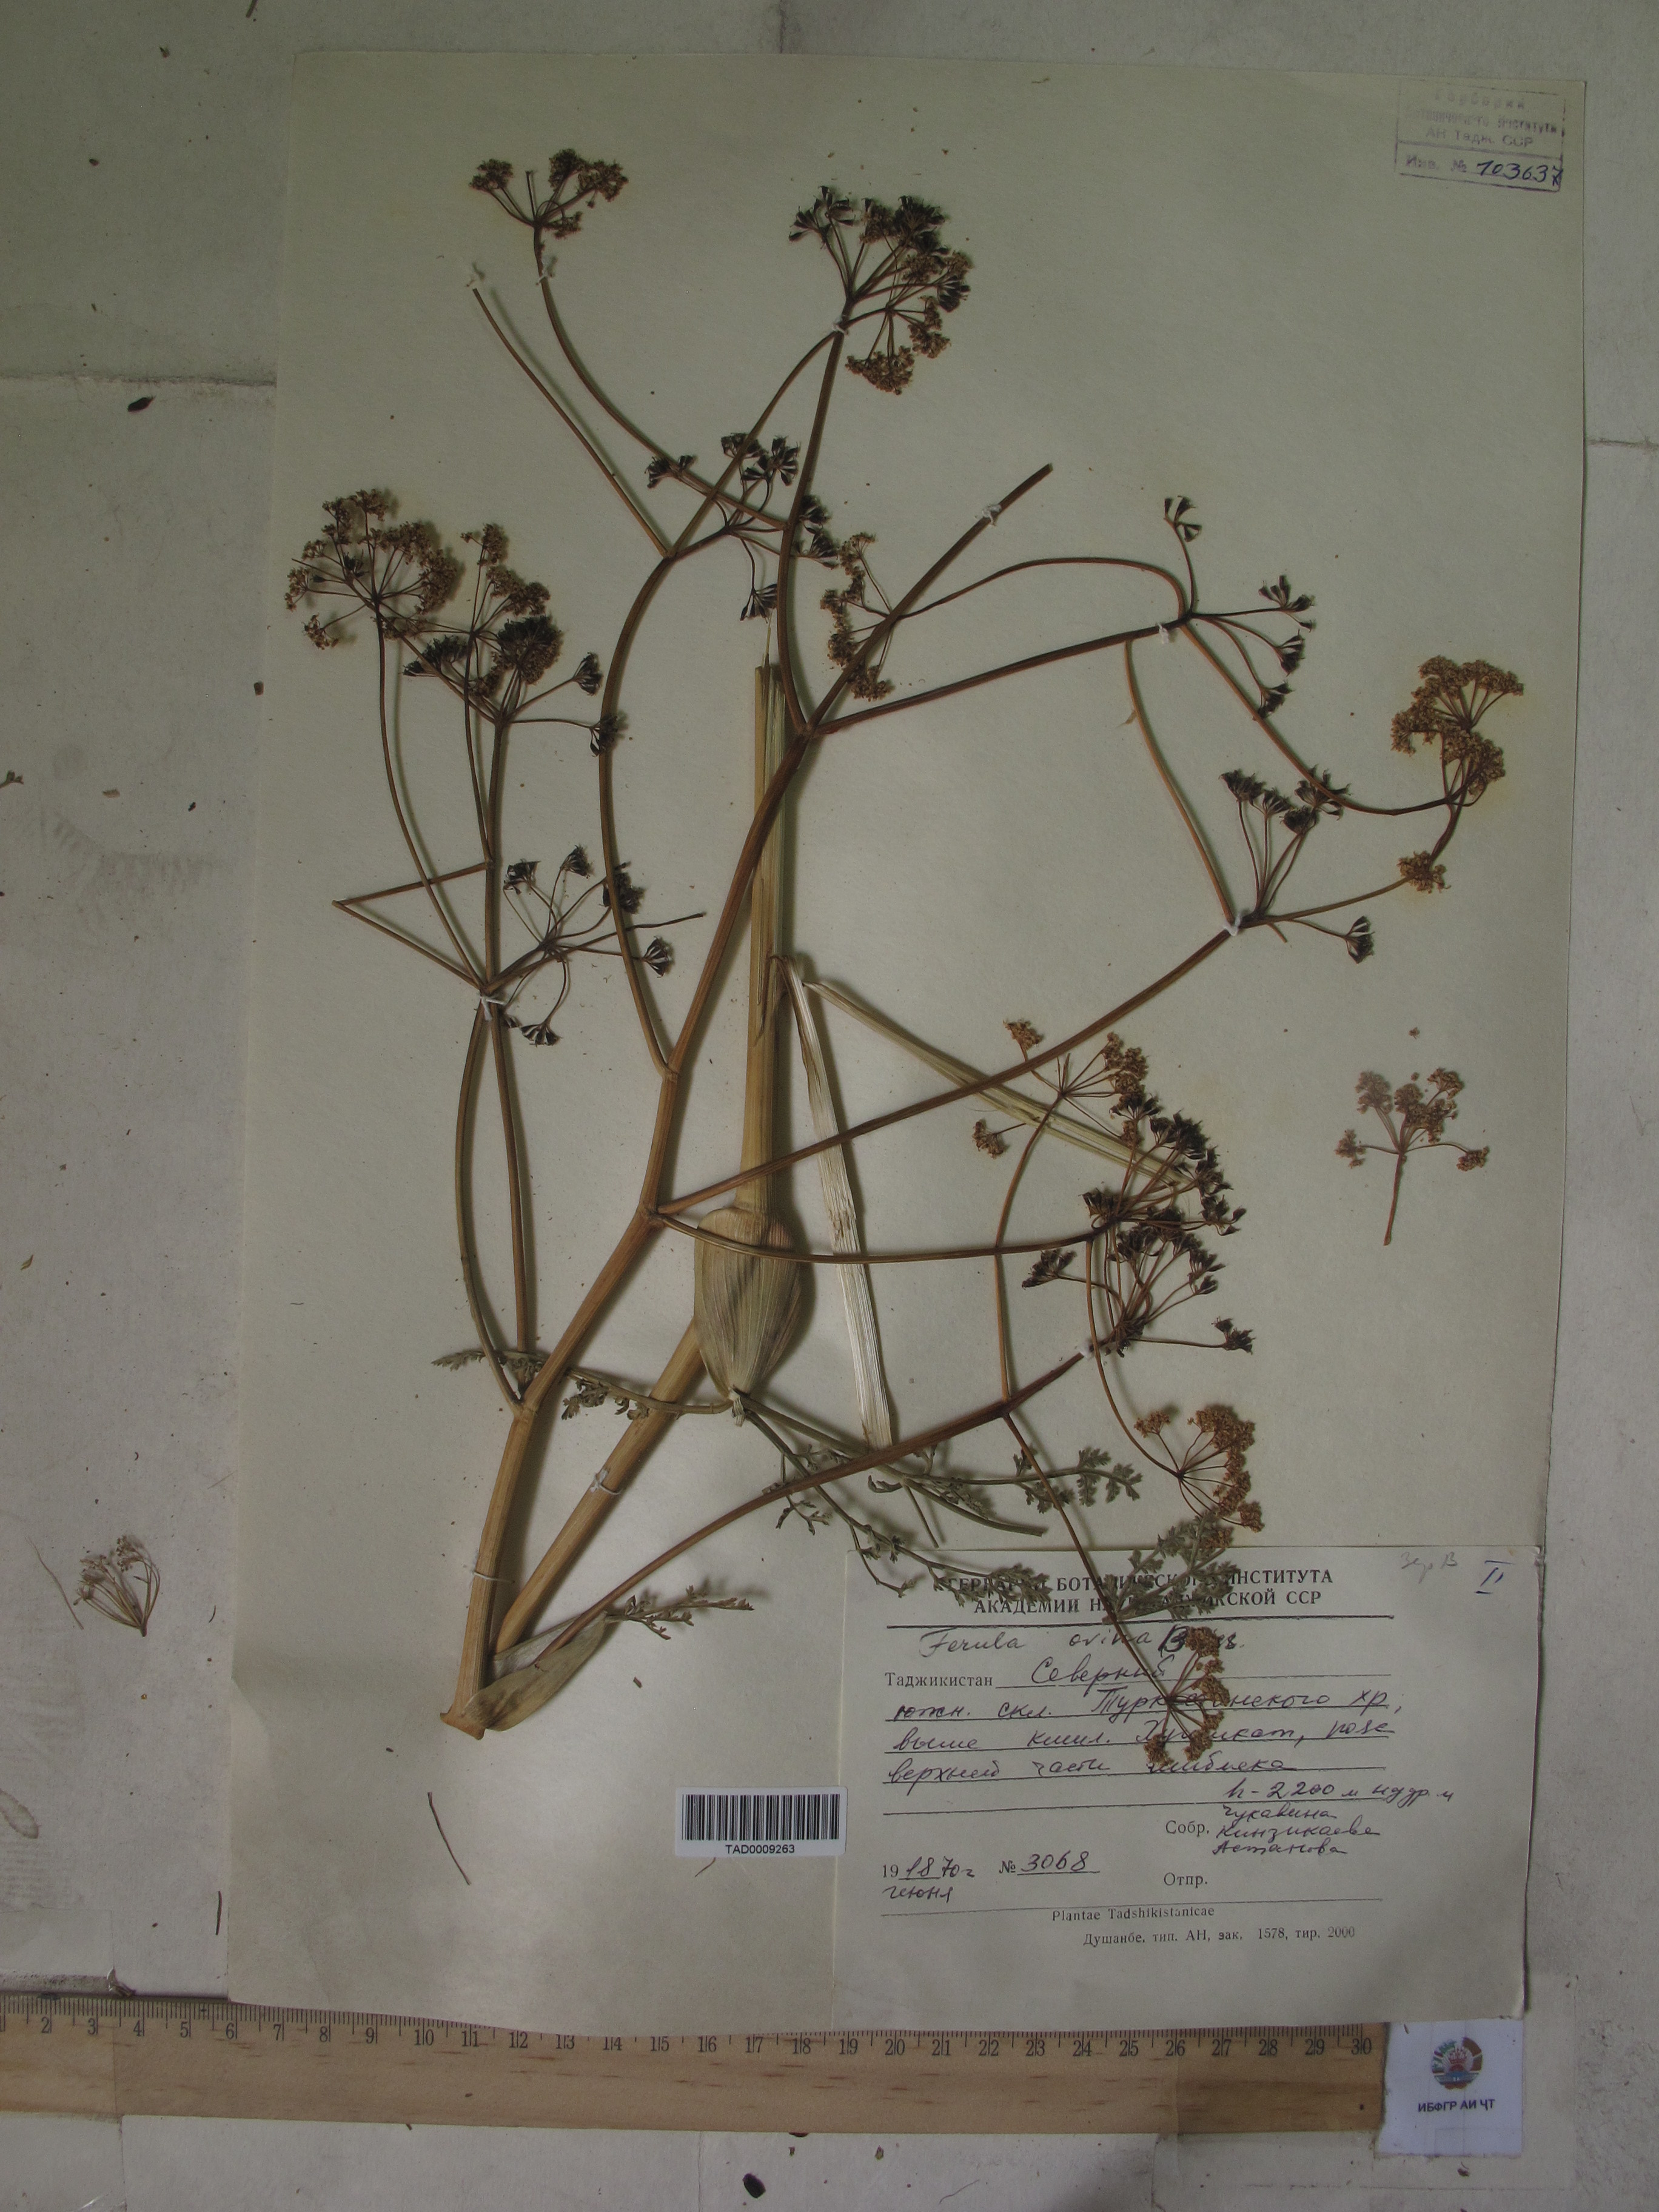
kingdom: Plantae
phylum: Tracheophyta
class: Magnoliopsida
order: Apiales
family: Apiaceae
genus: Ferula
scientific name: Ferula ovina
